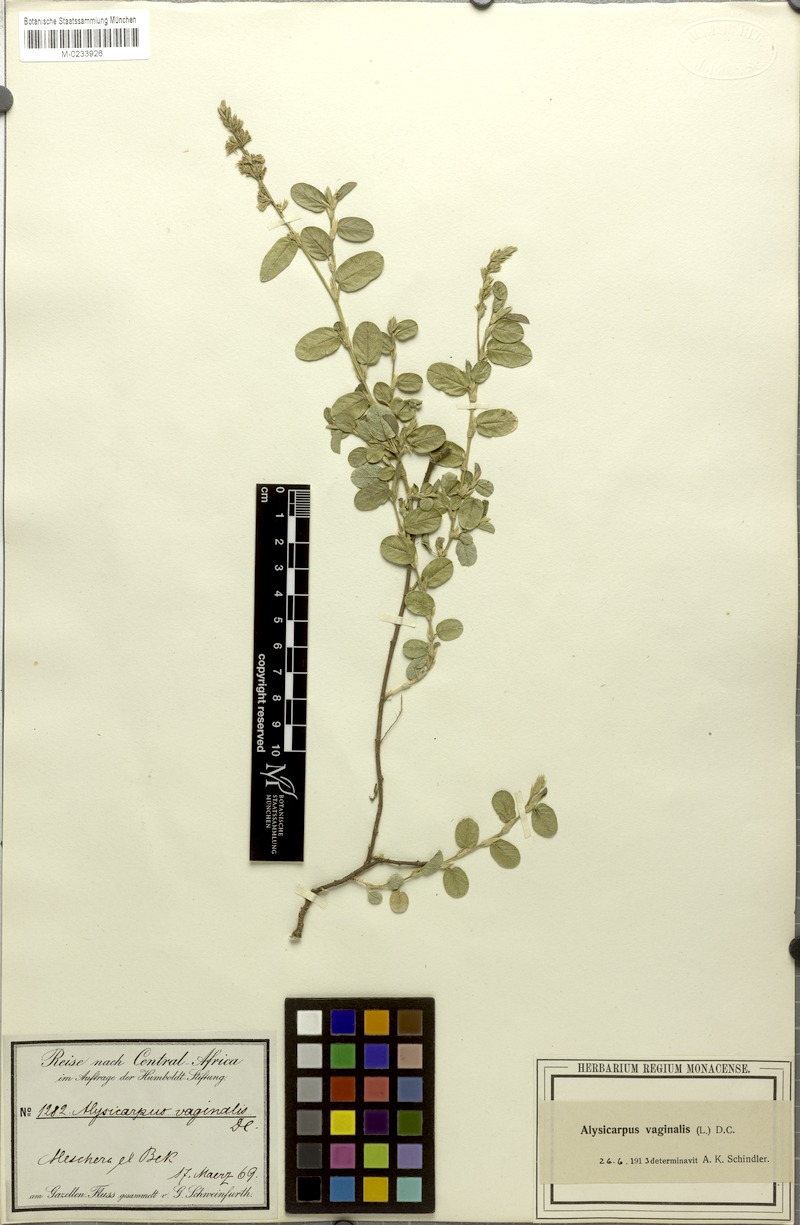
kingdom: Plantae
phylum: Tracheophyta
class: Magnoliopsida
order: Fabales
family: Fabaceae
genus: Alysicarpus
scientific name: Alysicarpus vaginalis
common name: White moneywort
